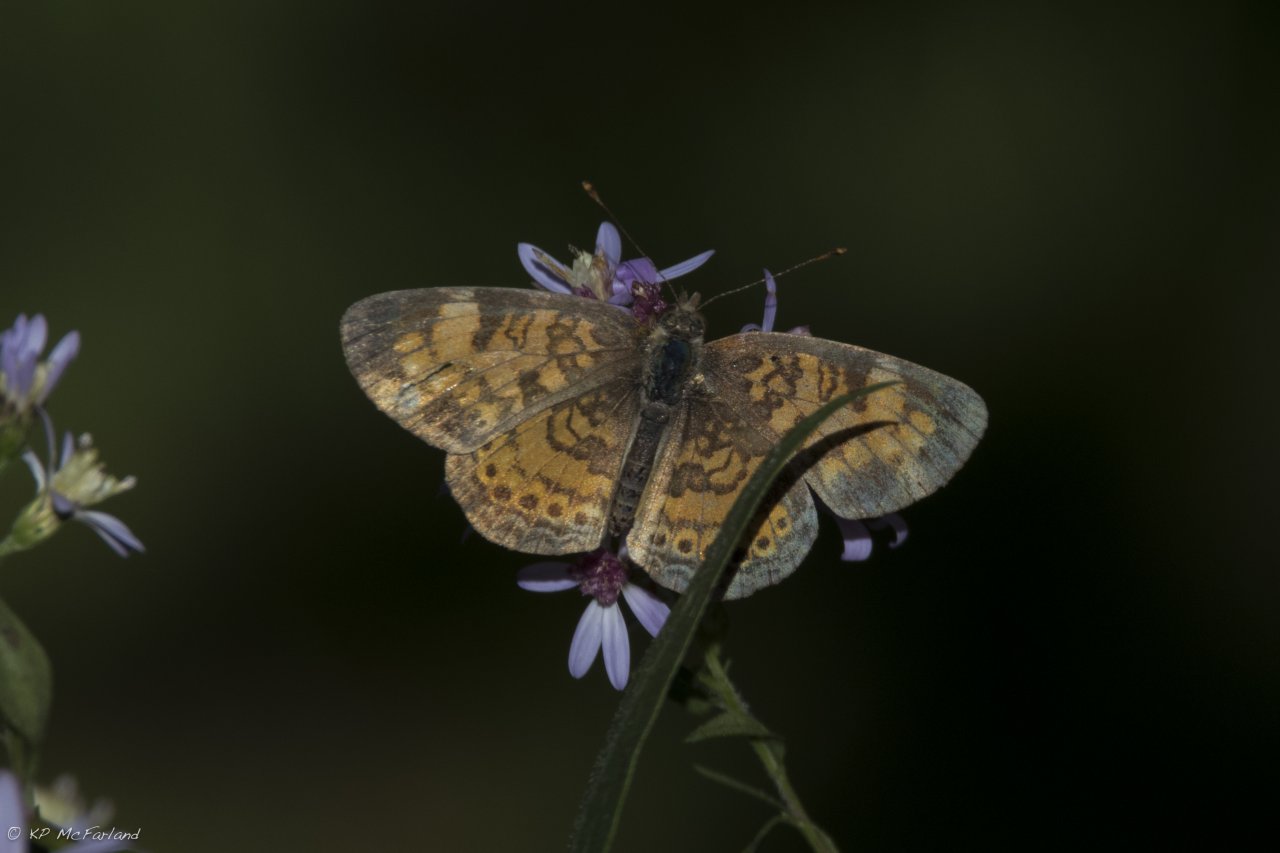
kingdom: Animalia
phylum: Arthropoda
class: Insecta
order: Lepidoptera
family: Nymphalidae
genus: Phyciodes
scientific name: Phyciodes tharos
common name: Pearl Crescent
